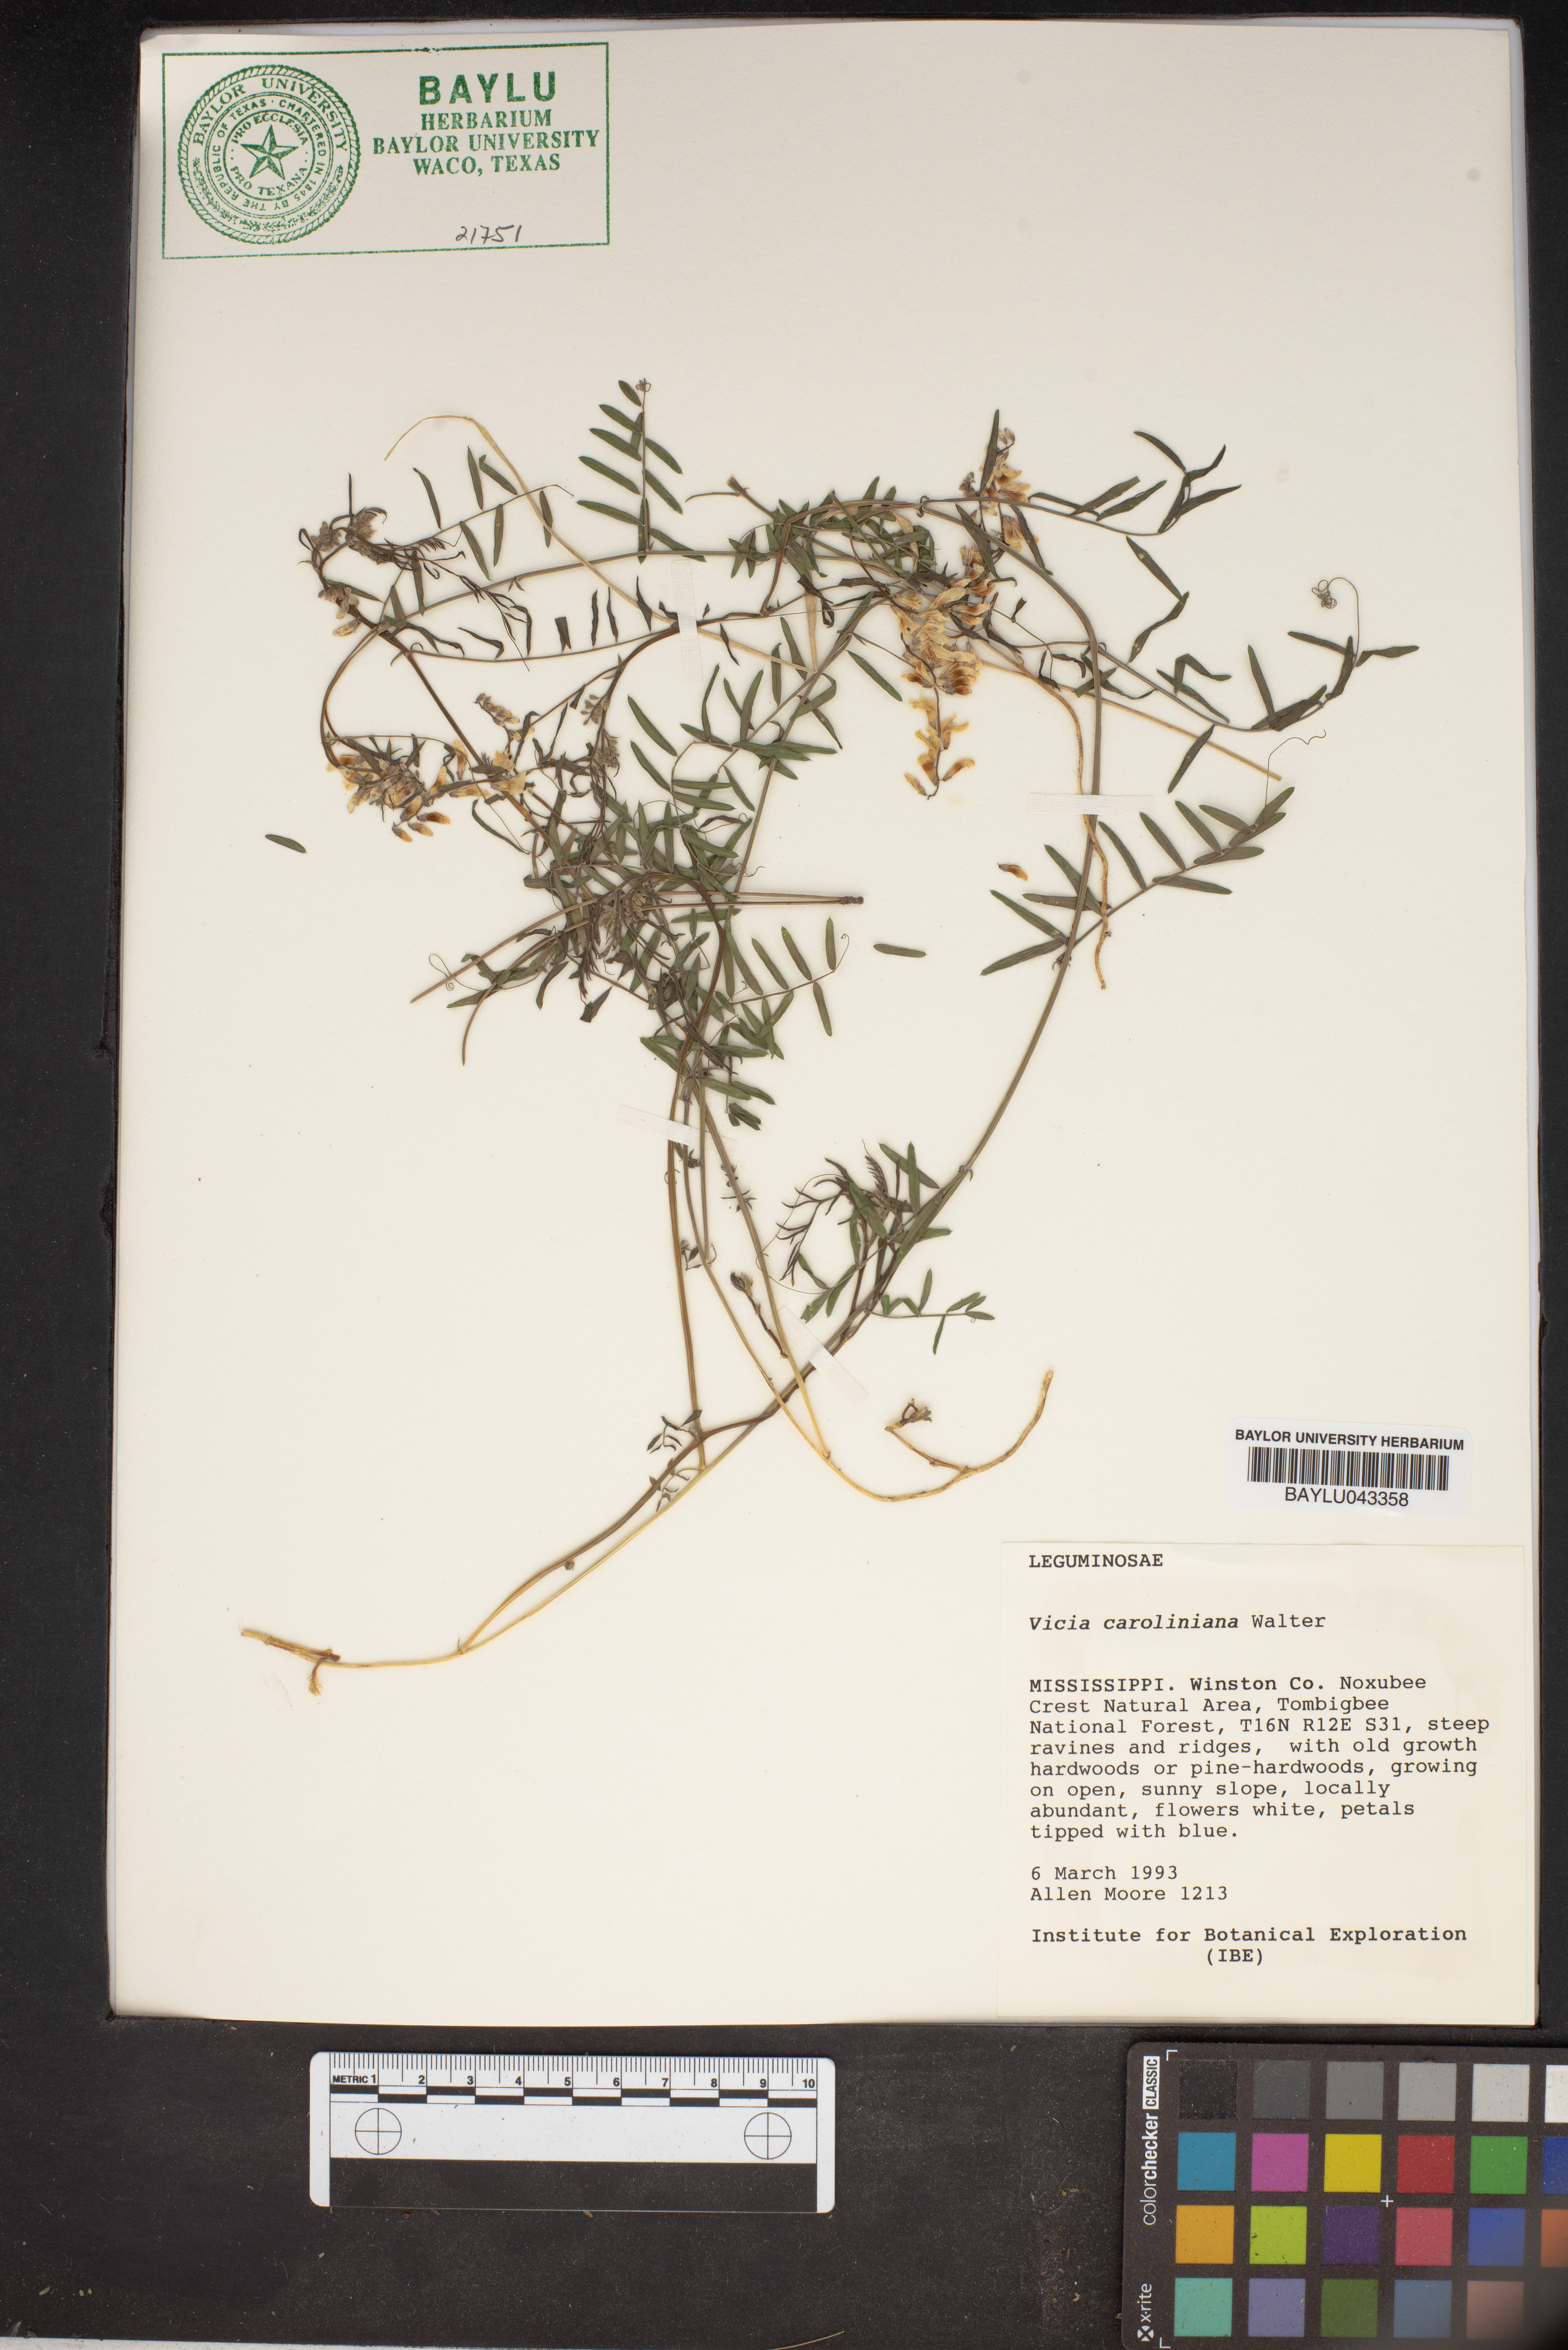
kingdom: Plantae
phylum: Tracheophyta
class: Magnoliopsida
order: Fabales
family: Fabaceae
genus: Vicia
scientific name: Vicia caroliniana
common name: Carolina vetch
